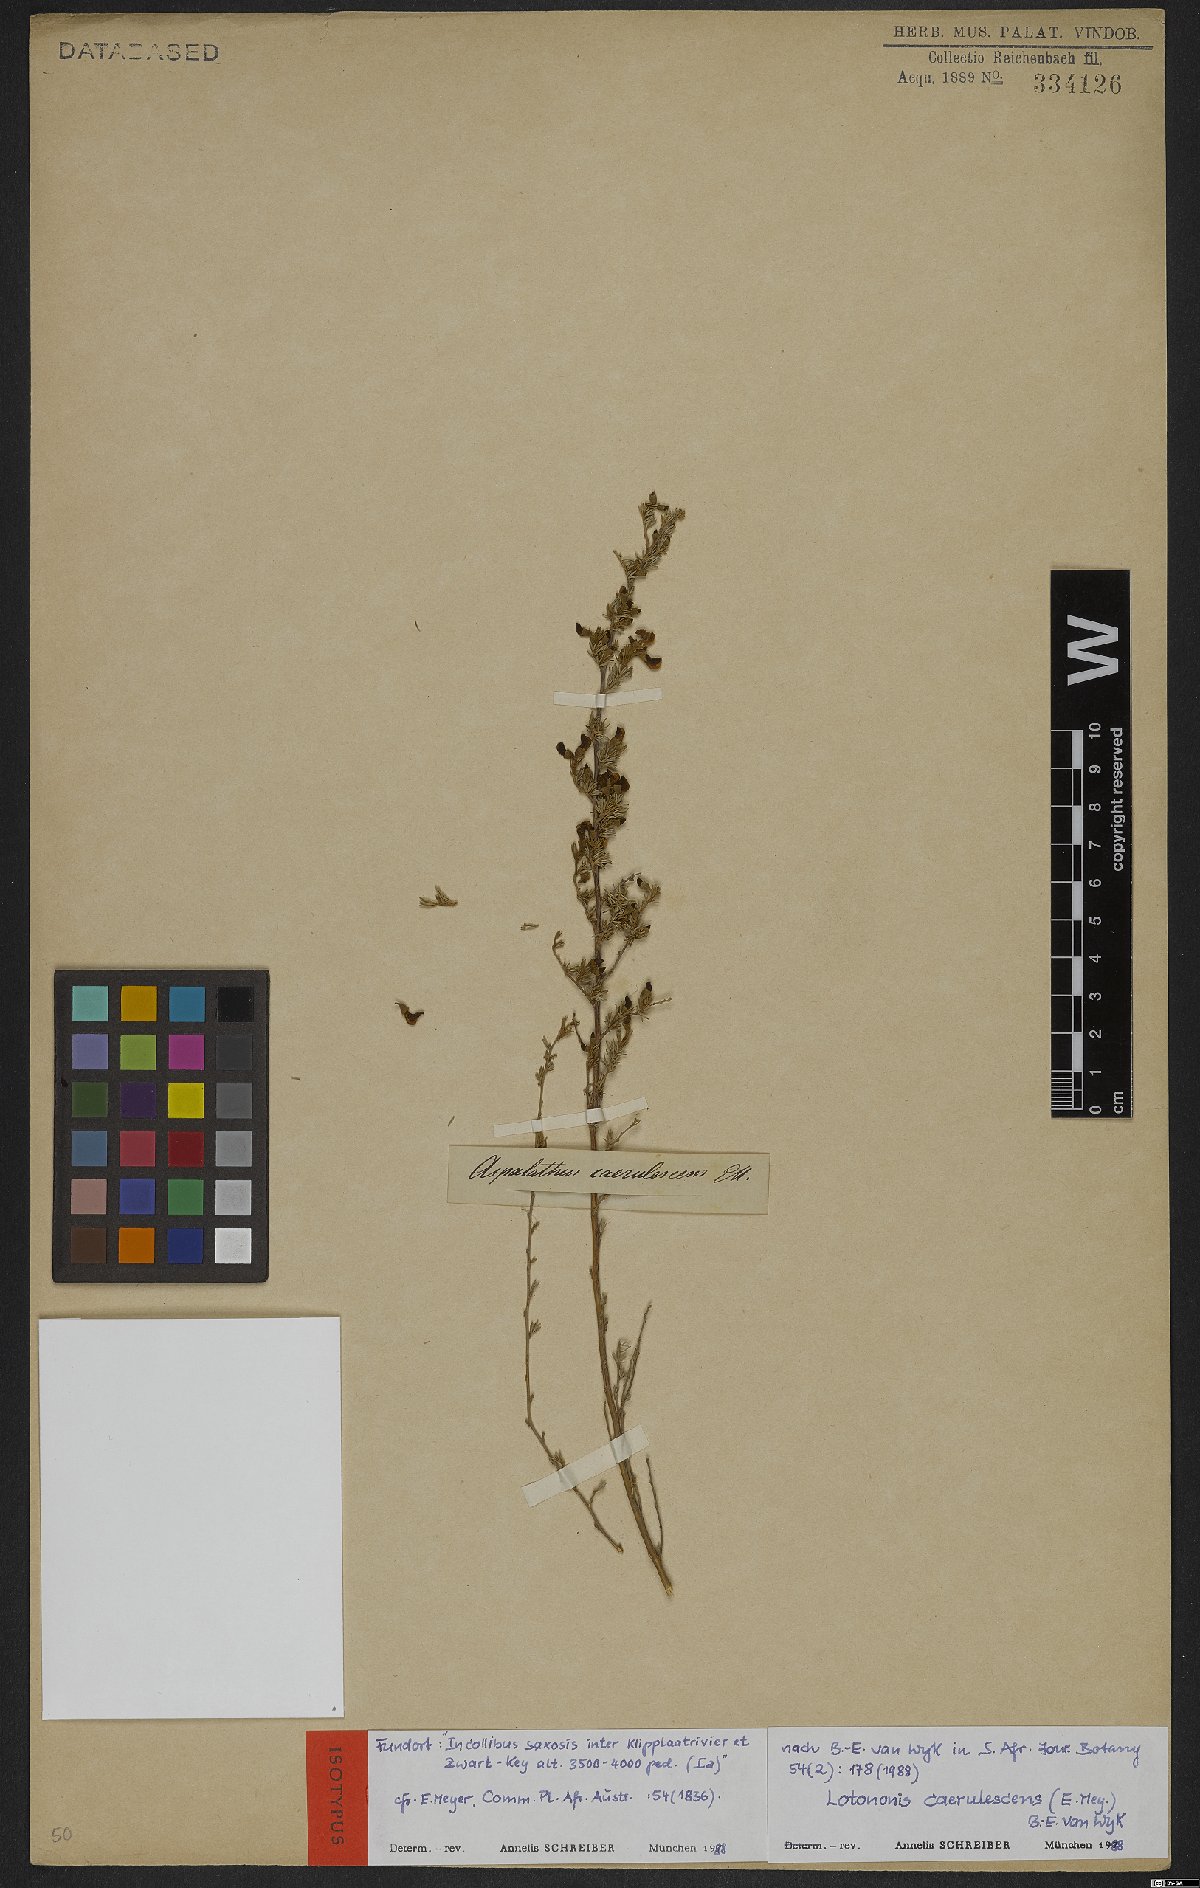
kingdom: Plantae
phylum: Tracheophyta
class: Magnoliopsida
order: Fabales
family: Fabaceae
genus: Lotononis
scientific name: Lotononis caerulescens
